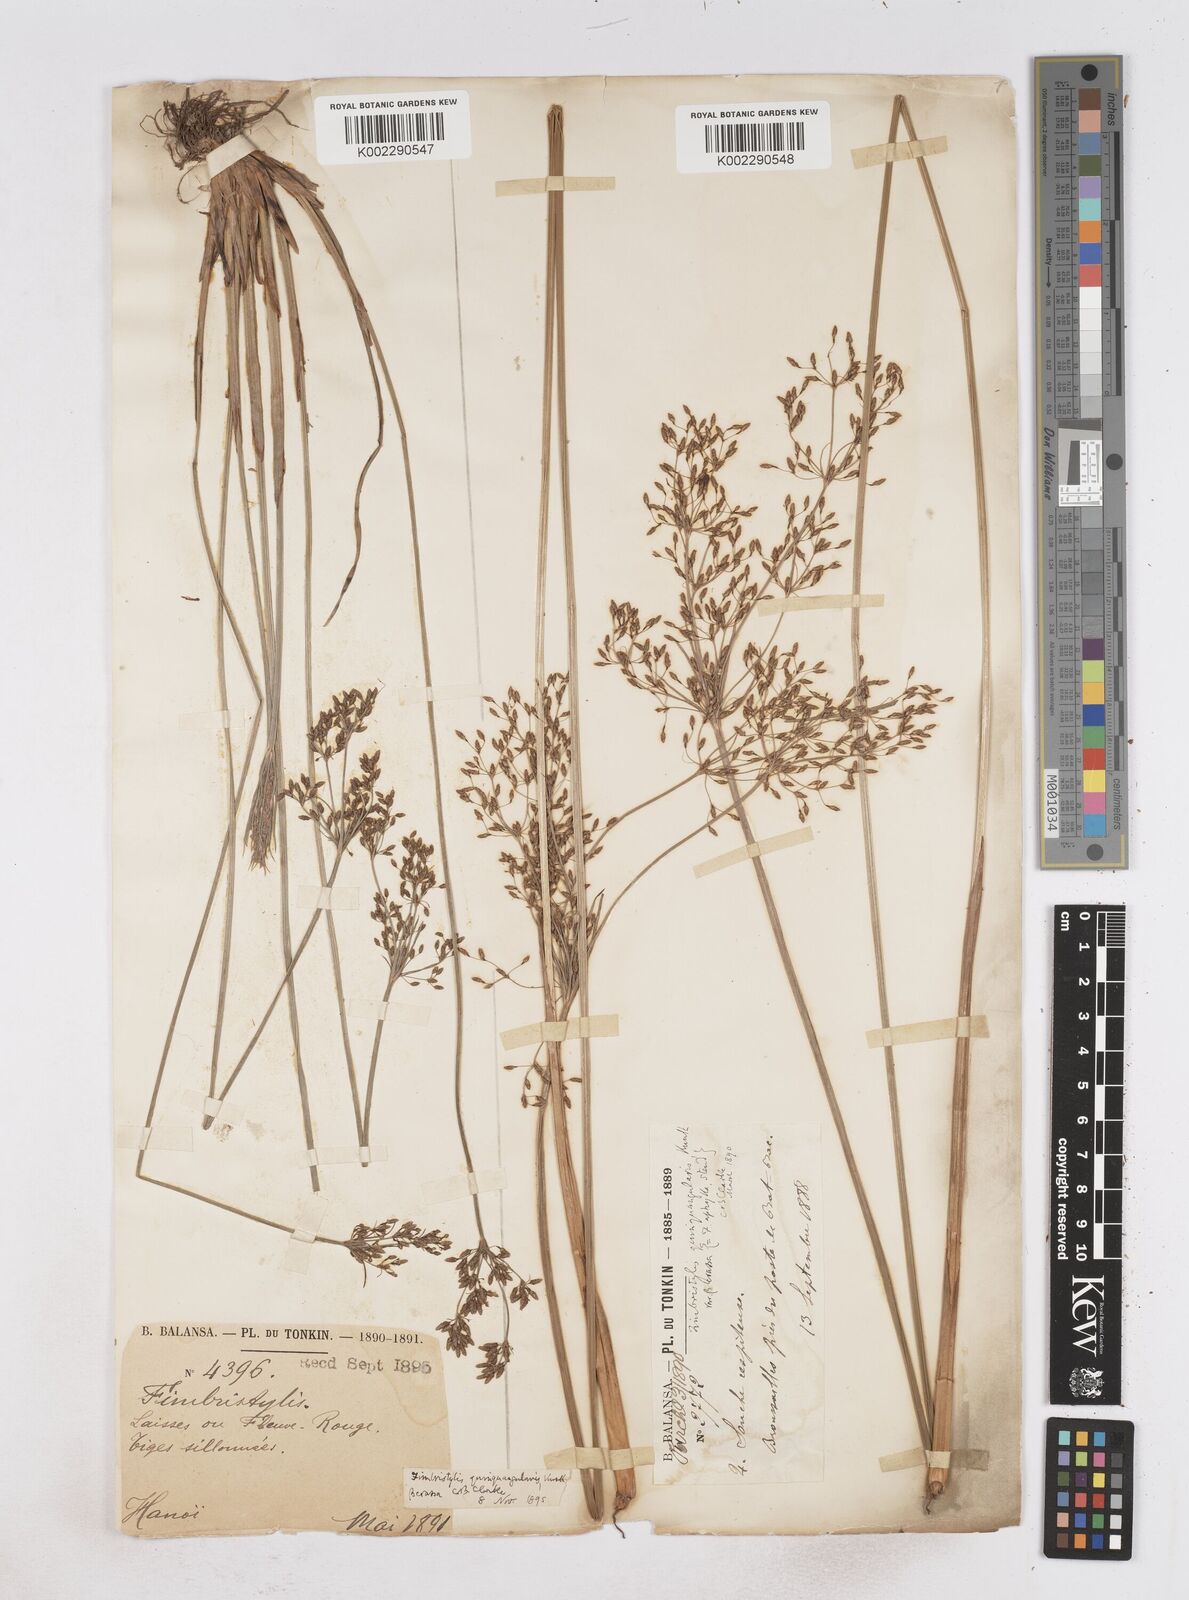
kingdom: Plantae
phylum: Tracheophyta
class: Liliopsida
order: Poales
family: Cyperaceae
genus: Fimbristylis
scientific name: Fimbristylis aphylla
